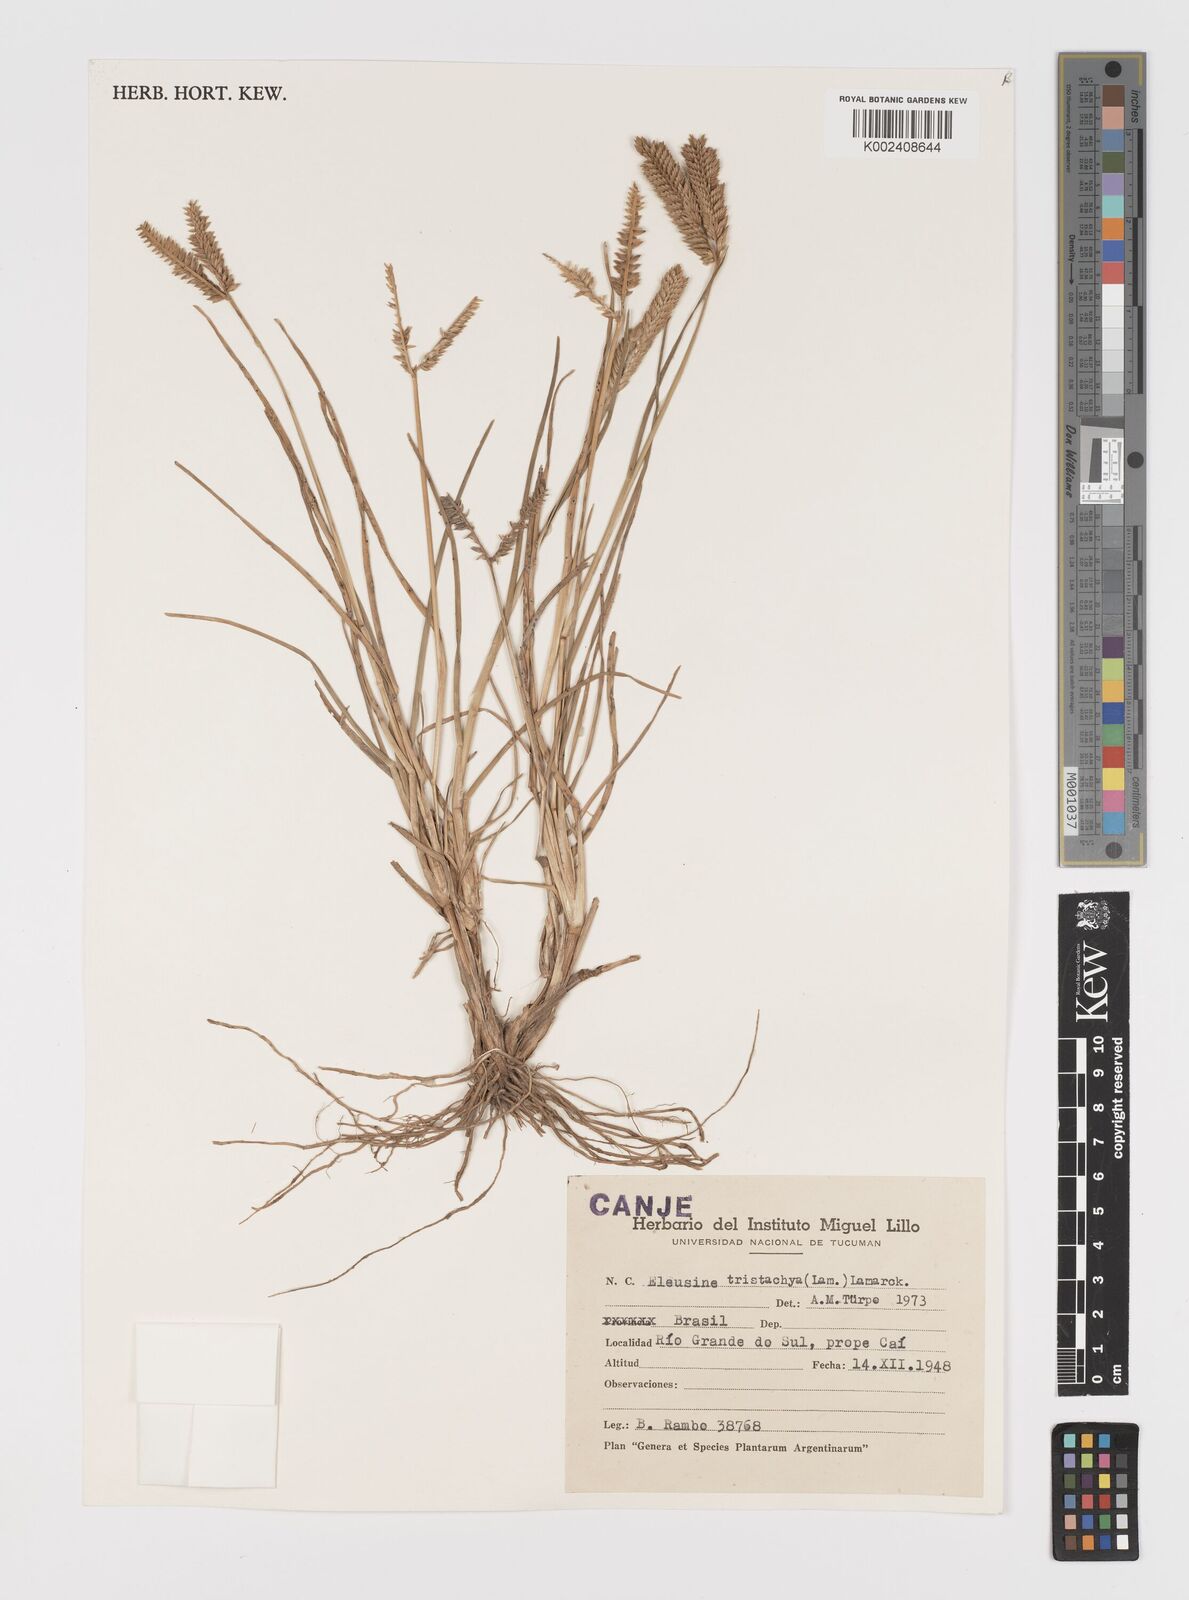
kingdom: Plantae
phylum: Tracheophyta
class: Liliopsida
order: Poales
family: Poaceae
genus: Eleusine
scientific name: Eleusine tristachya
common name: American yard-grass
